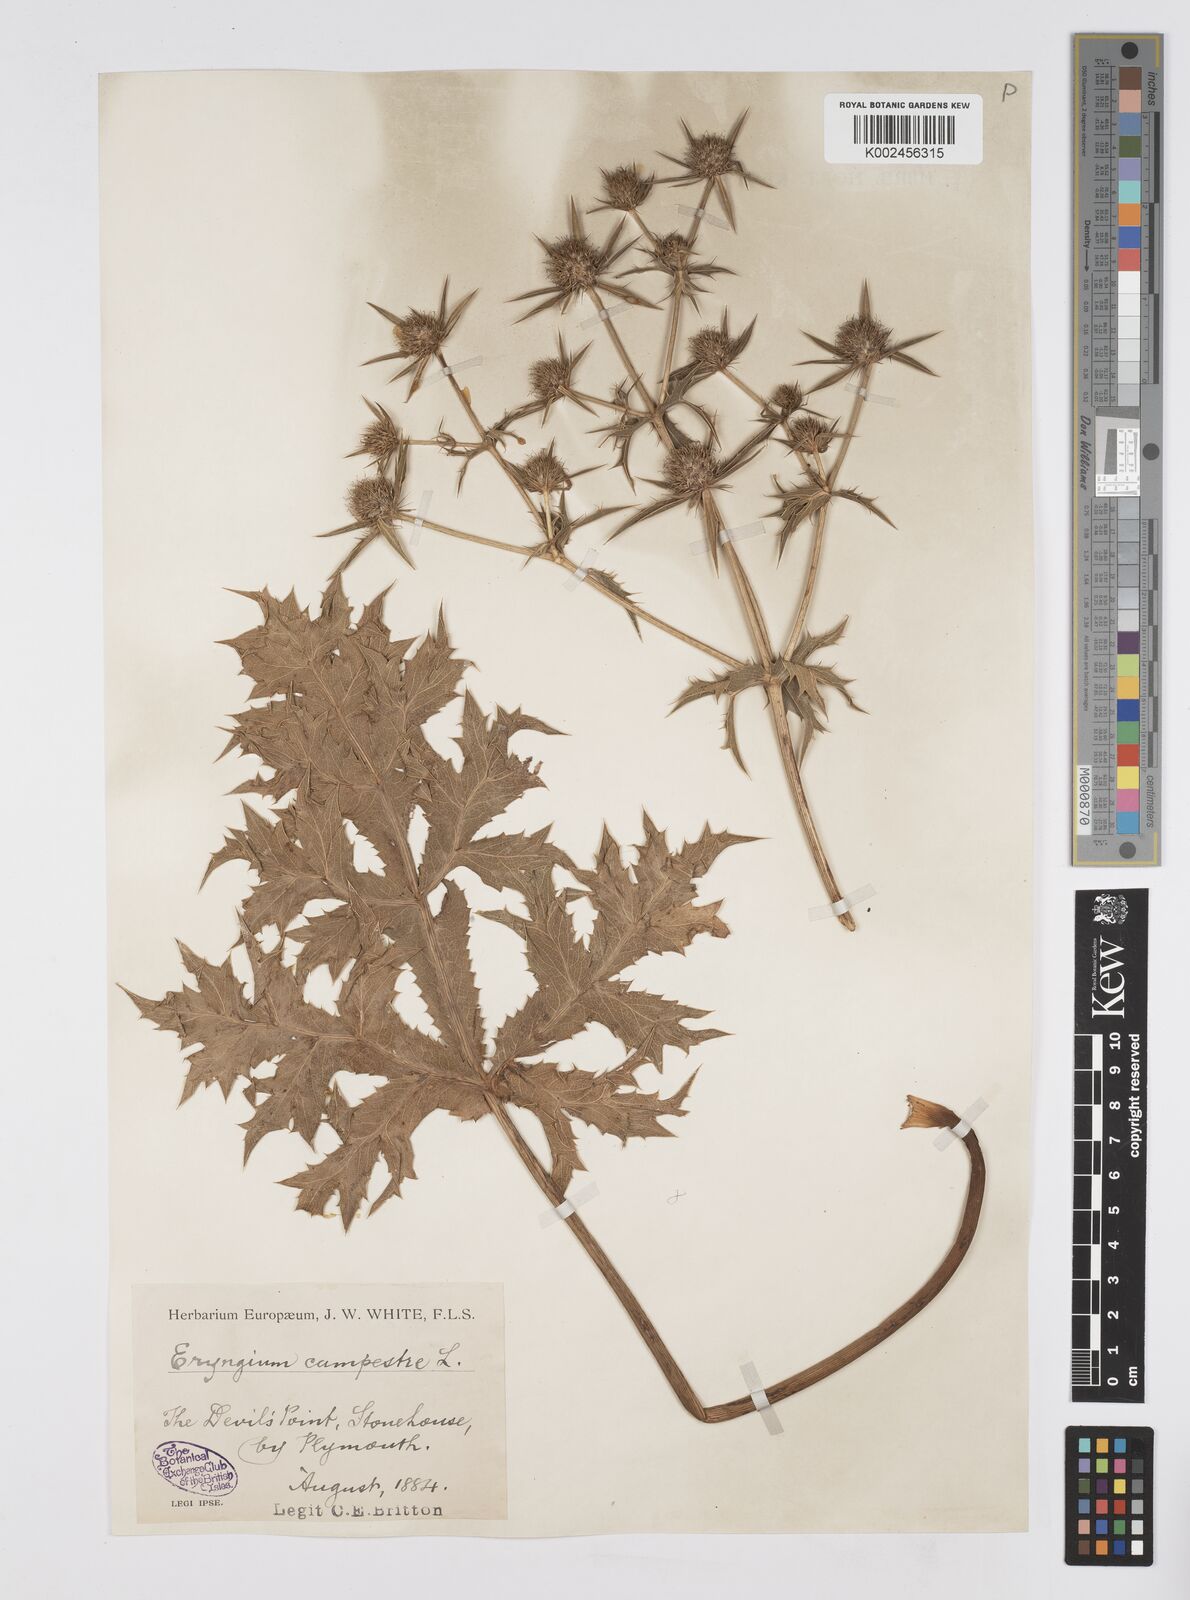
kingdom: Plantae
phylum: Tracheophyta
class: Magnoliopsida
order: Apiales
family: Apiaceae
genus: Eryngium
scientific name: Eryngium campestre
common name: Field eryngo
